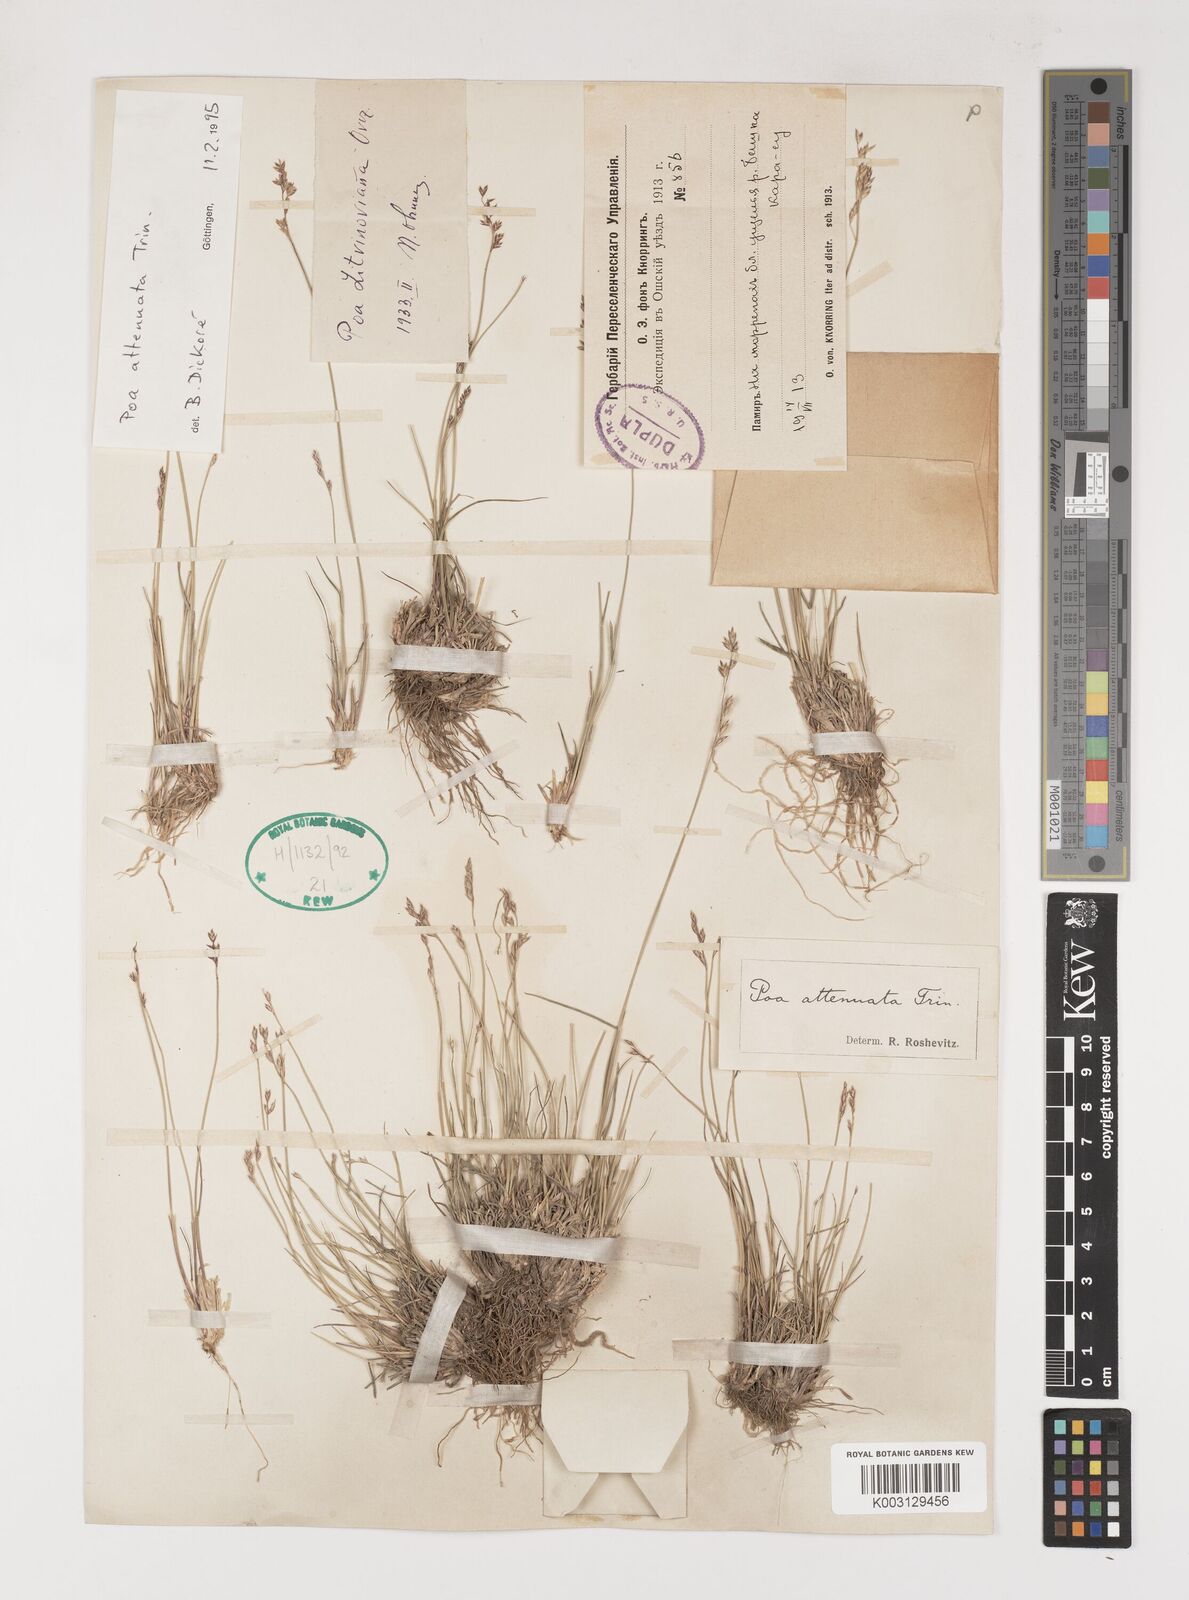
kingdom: Plantae
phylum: Tracheophyta
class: Liliopsida
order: Poales
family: Poaceae
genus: Poa
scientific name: Poa attenuata
